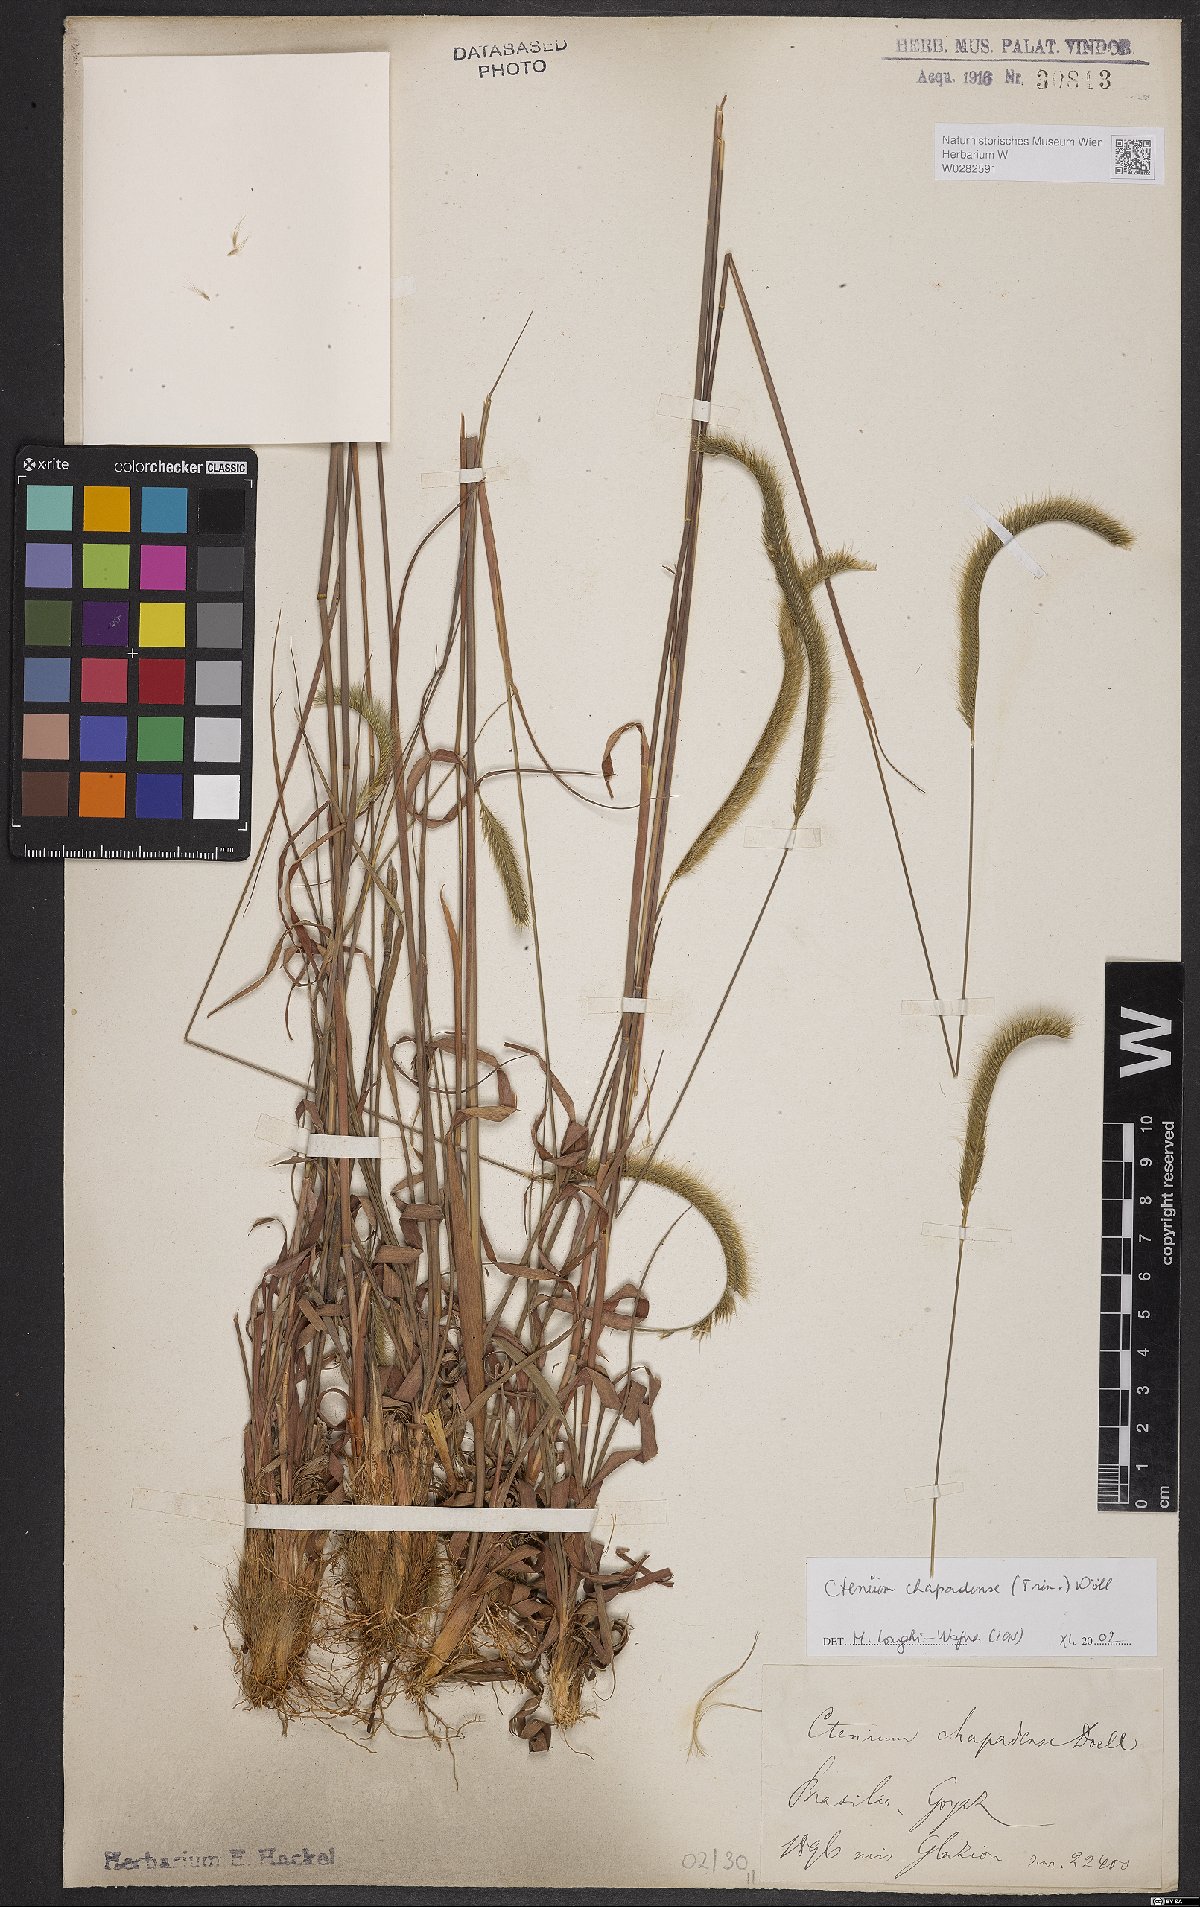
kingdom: Plantae
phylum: Tracheophyta
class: Liliopsida
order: Poales
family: Poaceae
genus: Ctenium
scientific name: Ctenium chapadense
